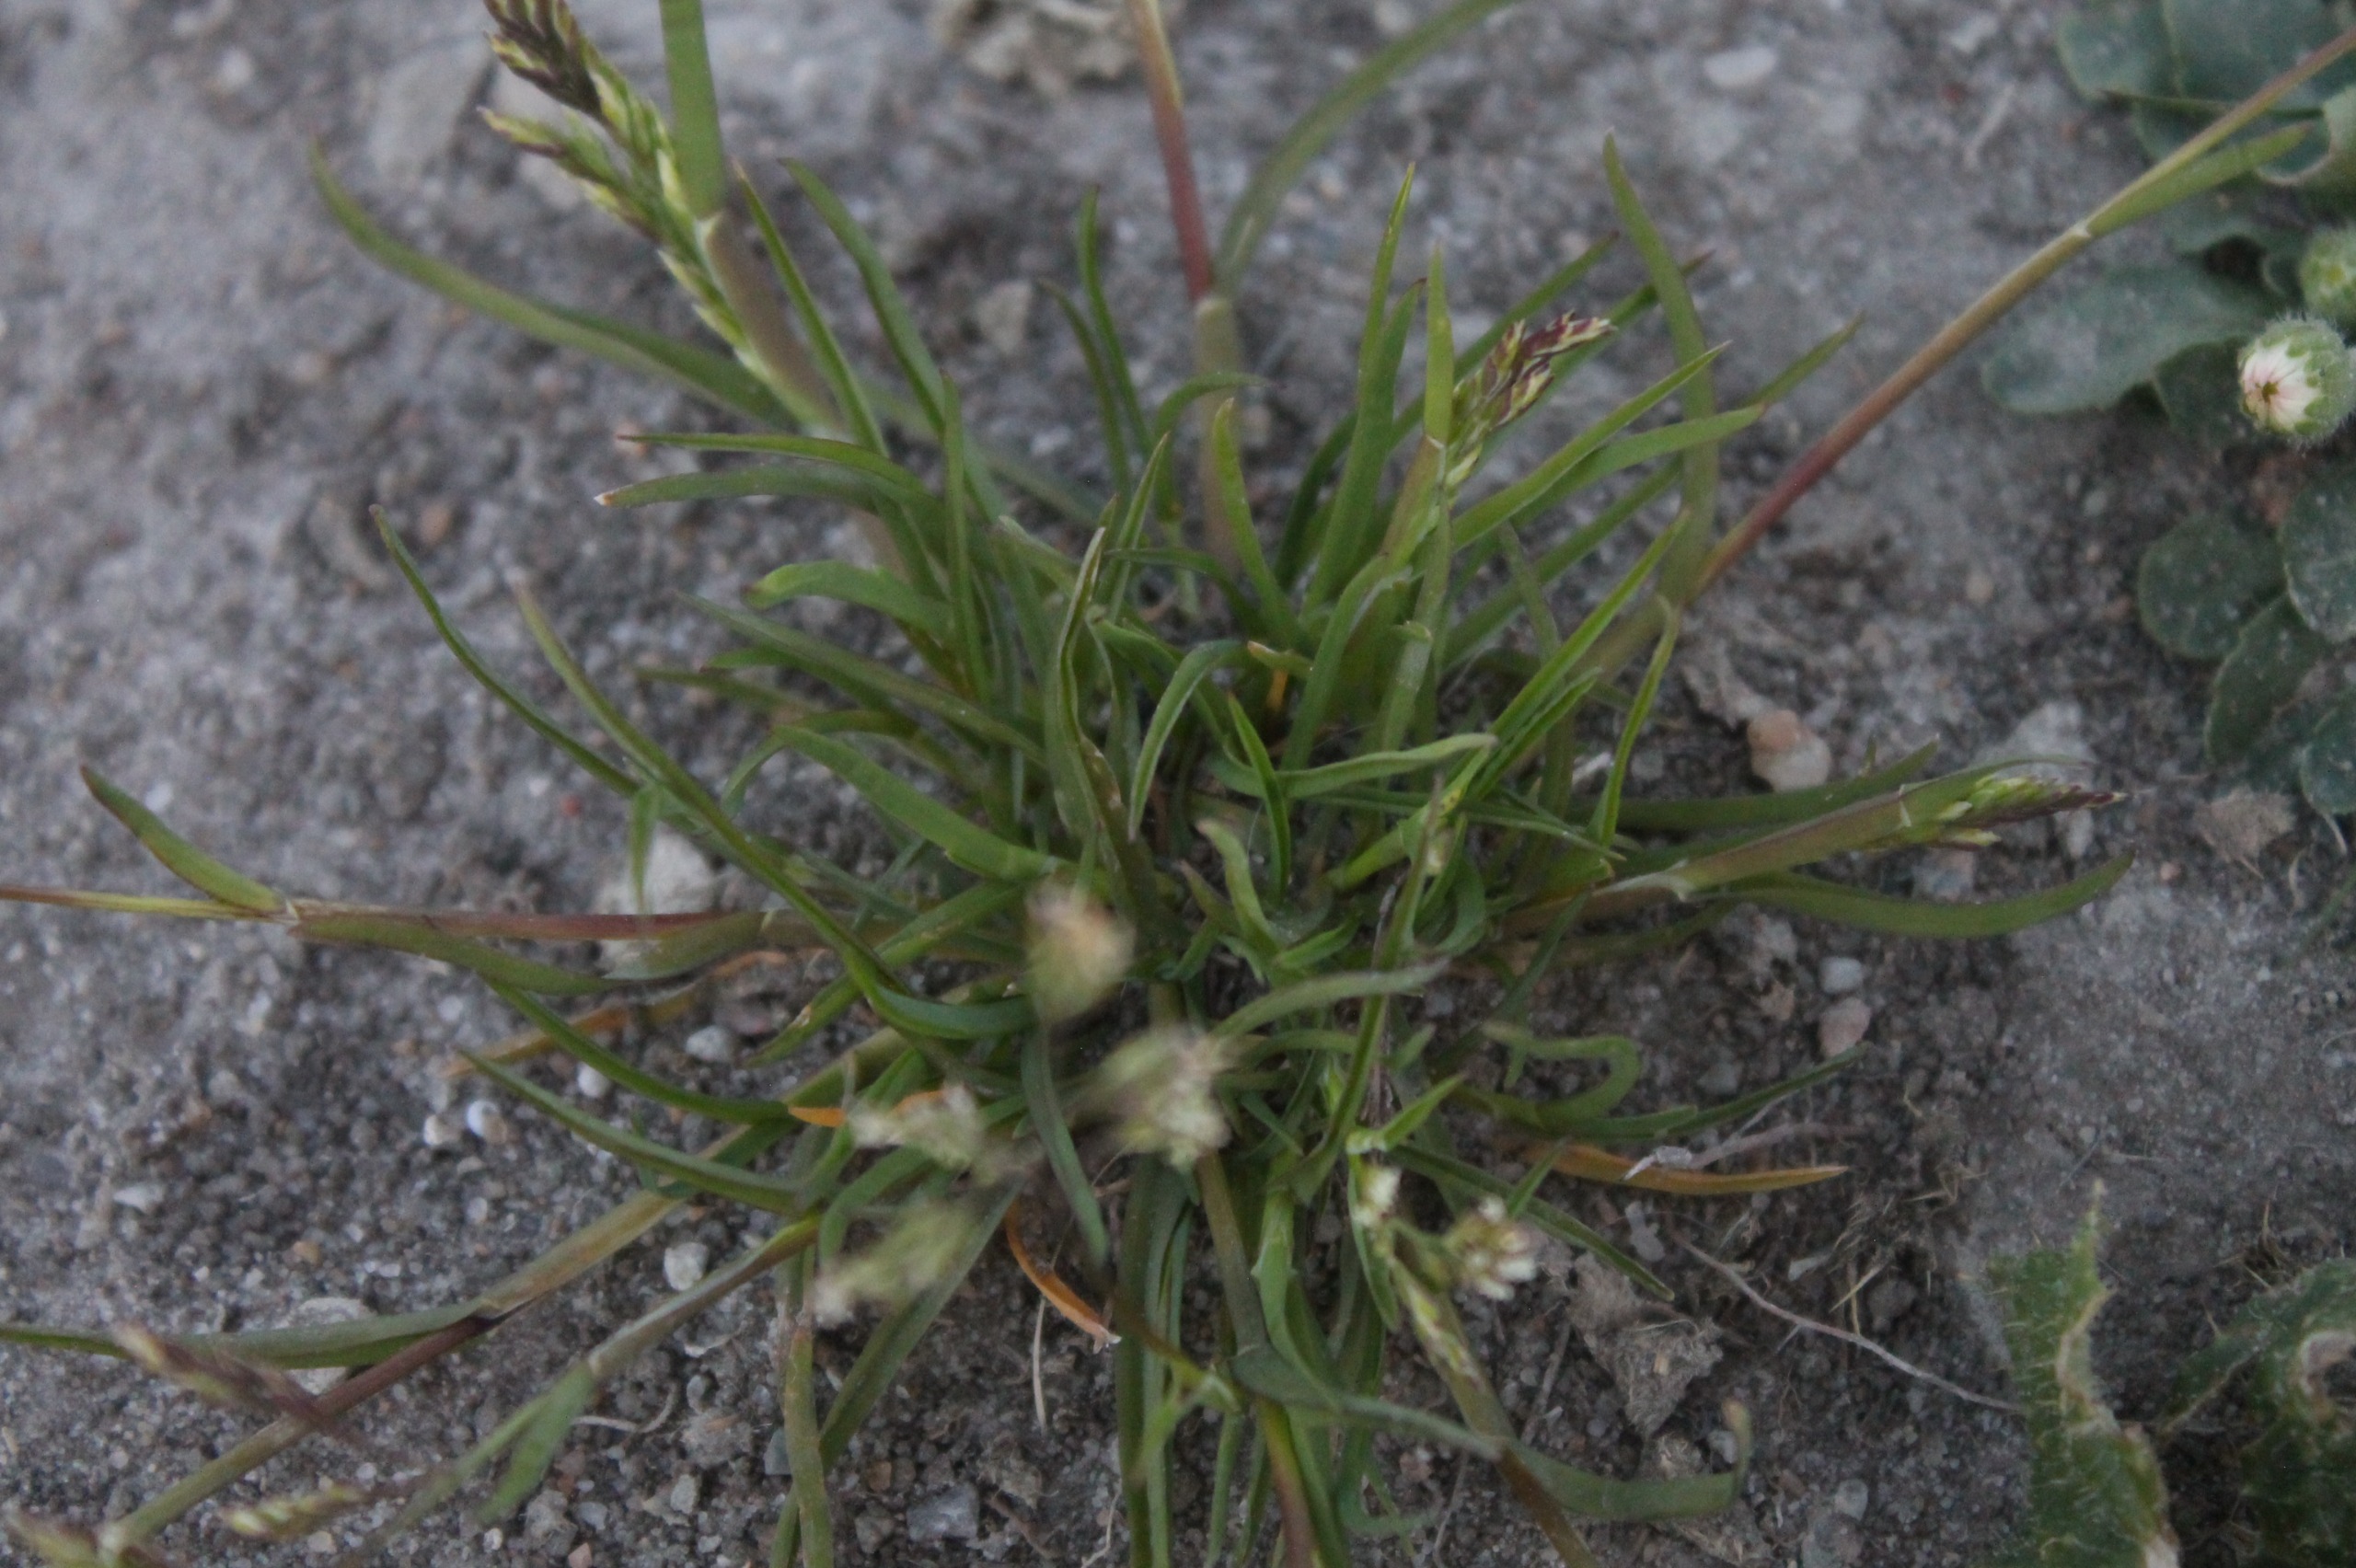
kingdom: Plantae
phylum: Tracheophyta
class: Liliopsida
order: Poales
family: Poaceae
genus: Poa
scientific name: Poa annua
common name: Enårig rapgræs
